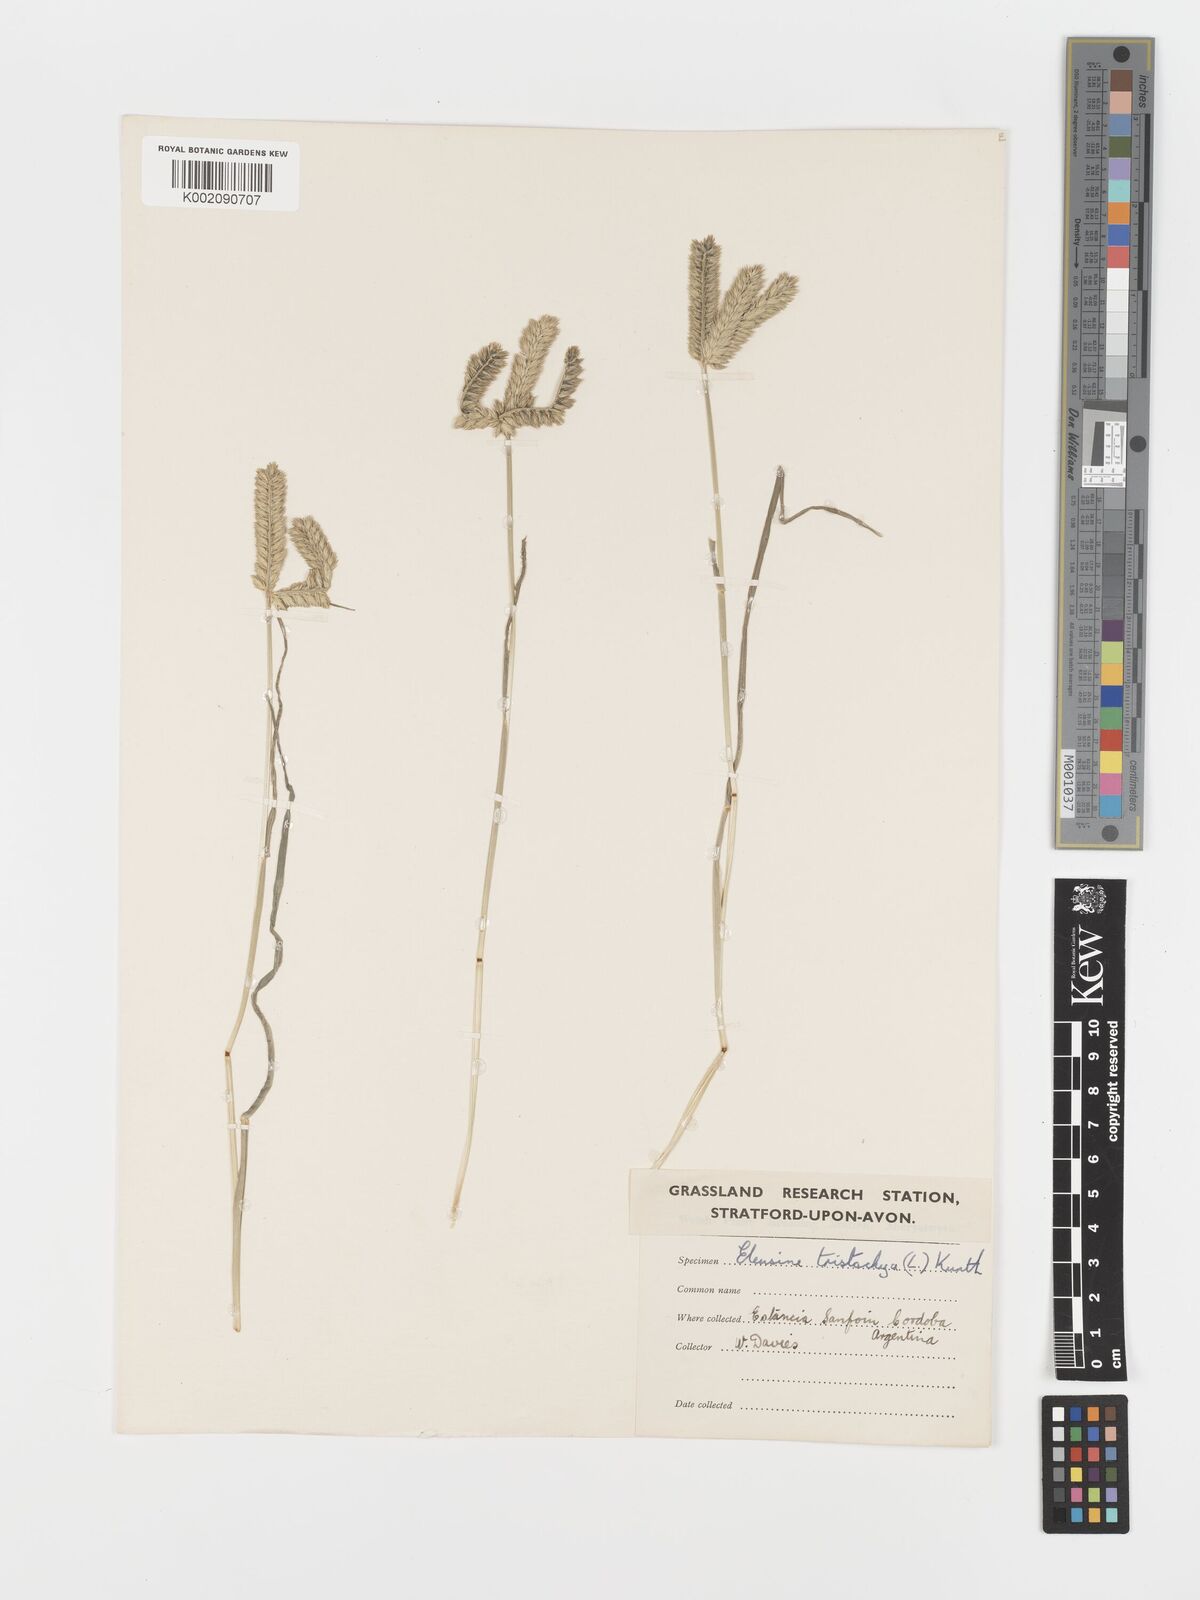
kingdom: Plantae
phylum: Tracheophyta
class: Liliopsida
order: Poales
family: Poaceae
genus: Eleusine
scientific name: Eleusine tristachya
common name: American yard-grass
